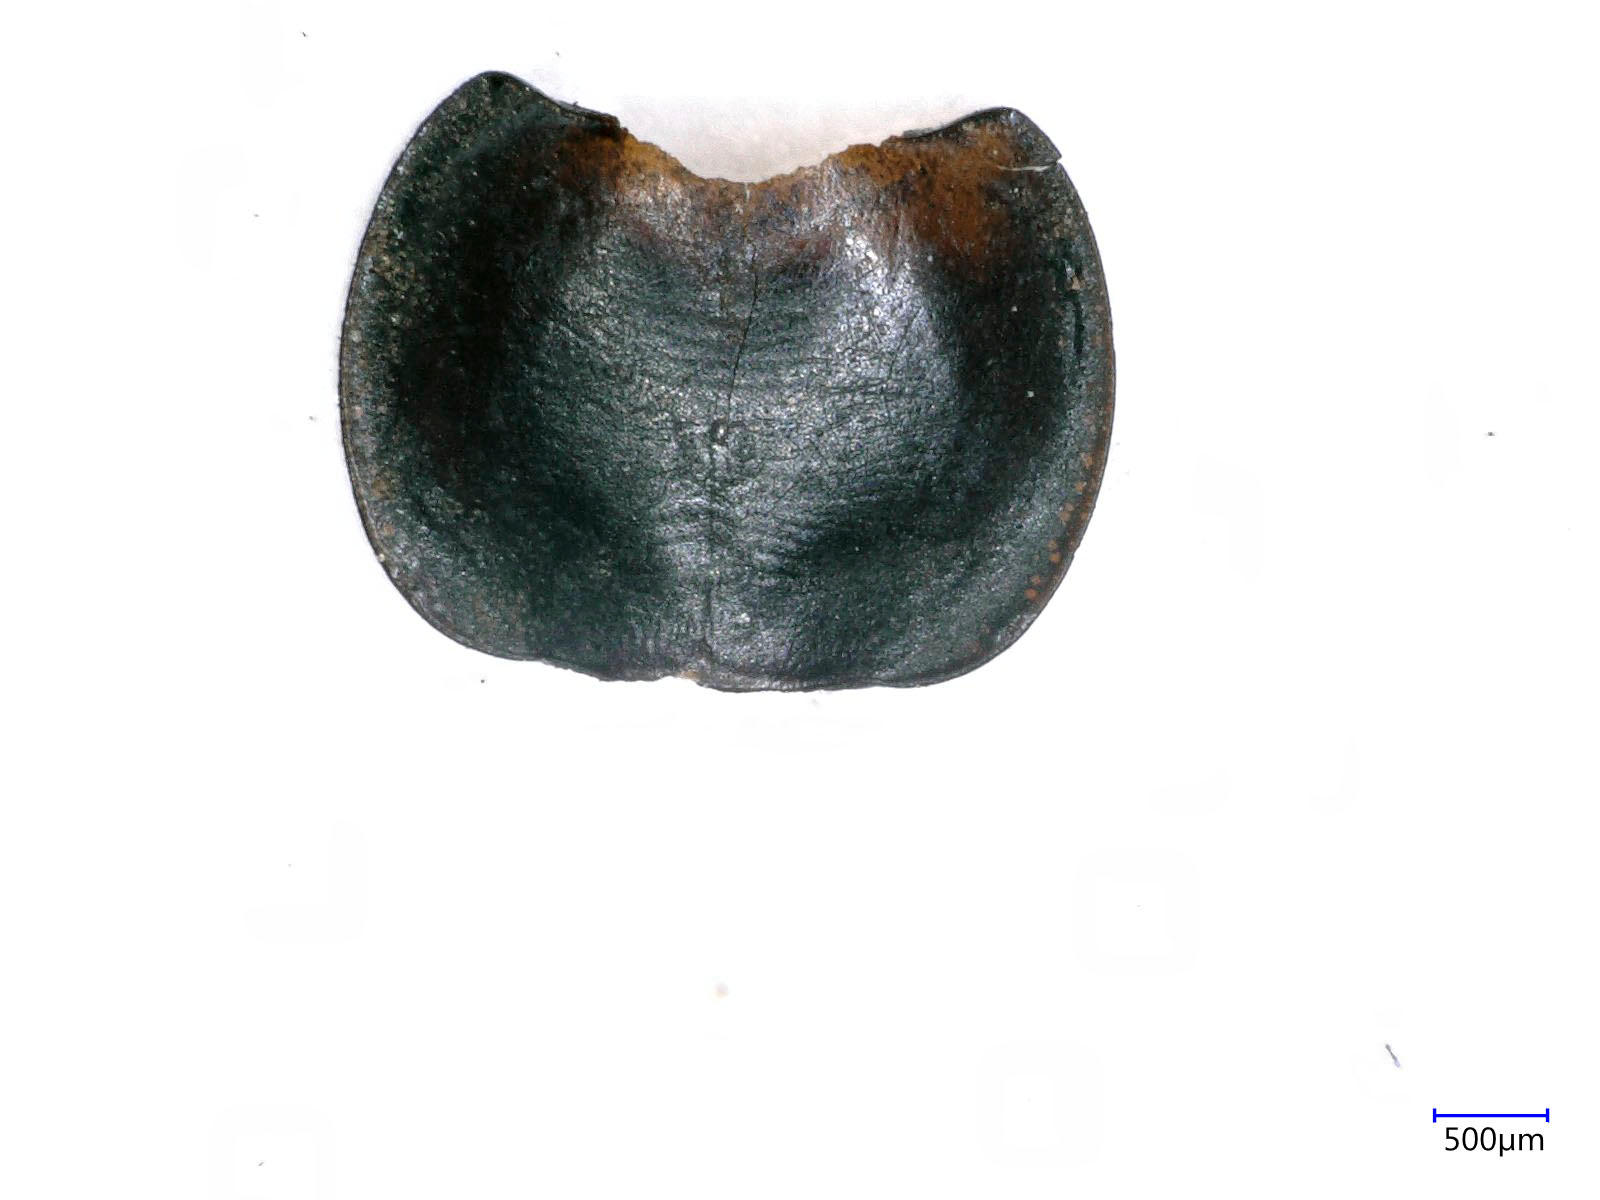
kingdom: Animalia
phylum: Arthropoda
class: Insecta
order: Coleoptera
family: Carabidae
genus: Tanystoma
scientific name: Tanystoma maculicolle
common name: Tule beetle
